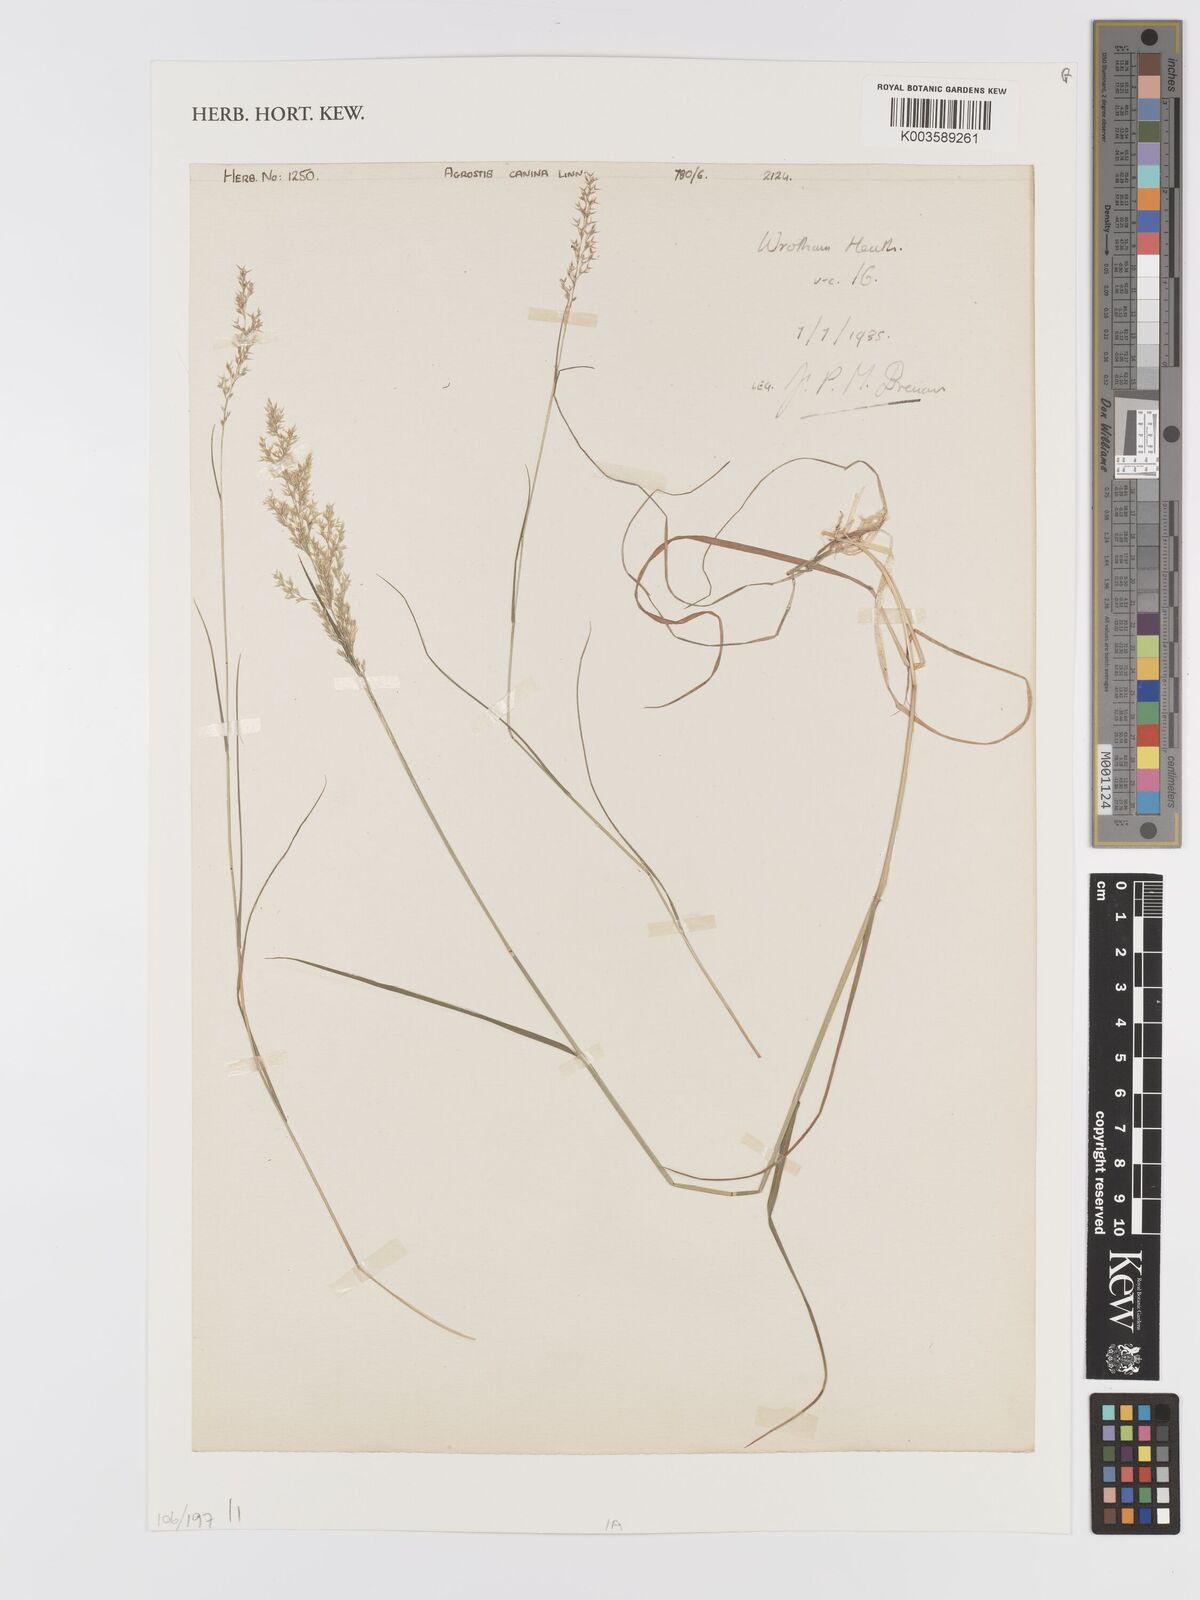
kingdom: Plantae
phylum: Tracheophyta
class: Liliopsida
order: Poales
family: Poaceae
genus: Agrostis
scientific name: Agrostis canina
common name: Velvet bent
